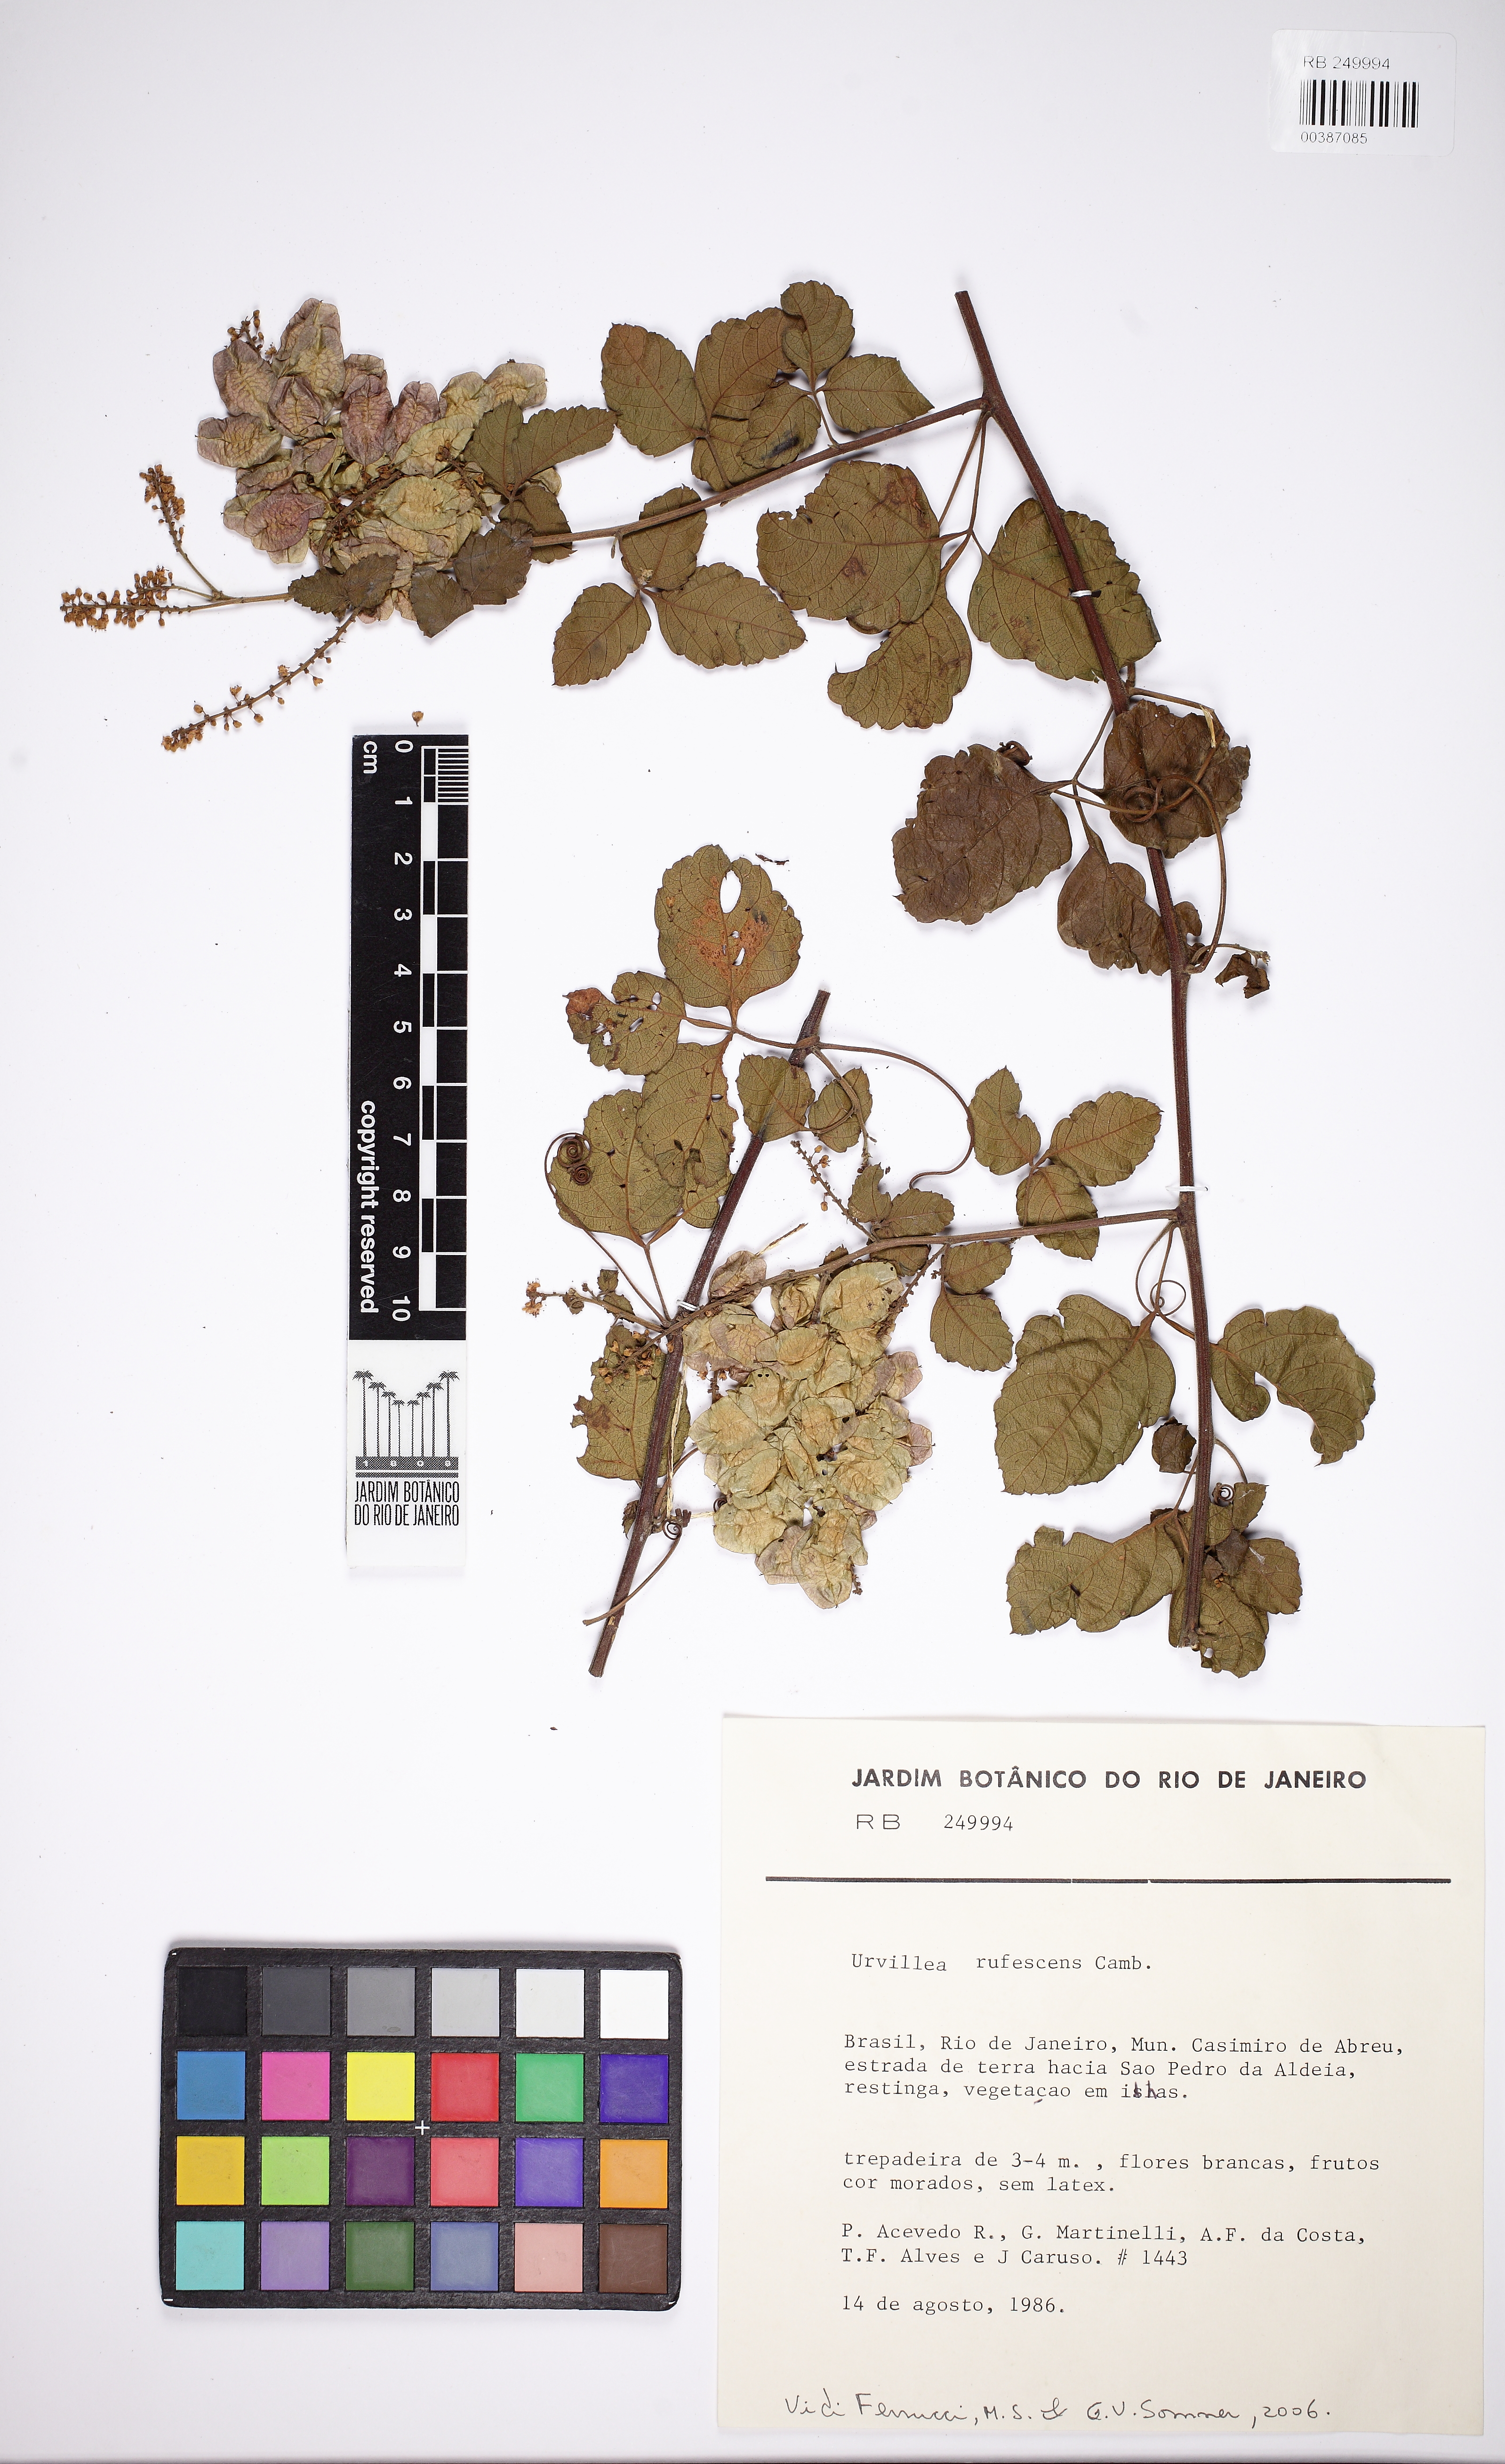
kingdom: Plantae
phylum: Tracheophyta
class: Magnoliopsida
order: Sapindales
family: Sapindaceae
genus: Urvillea
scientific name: Urvillea rufescens
